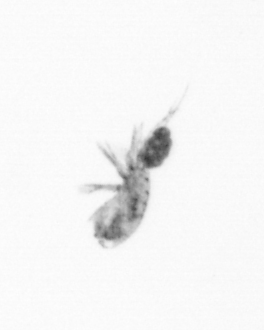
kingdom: Animalia
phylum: Arthropoda
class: Copepoda
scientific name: Copepoda
